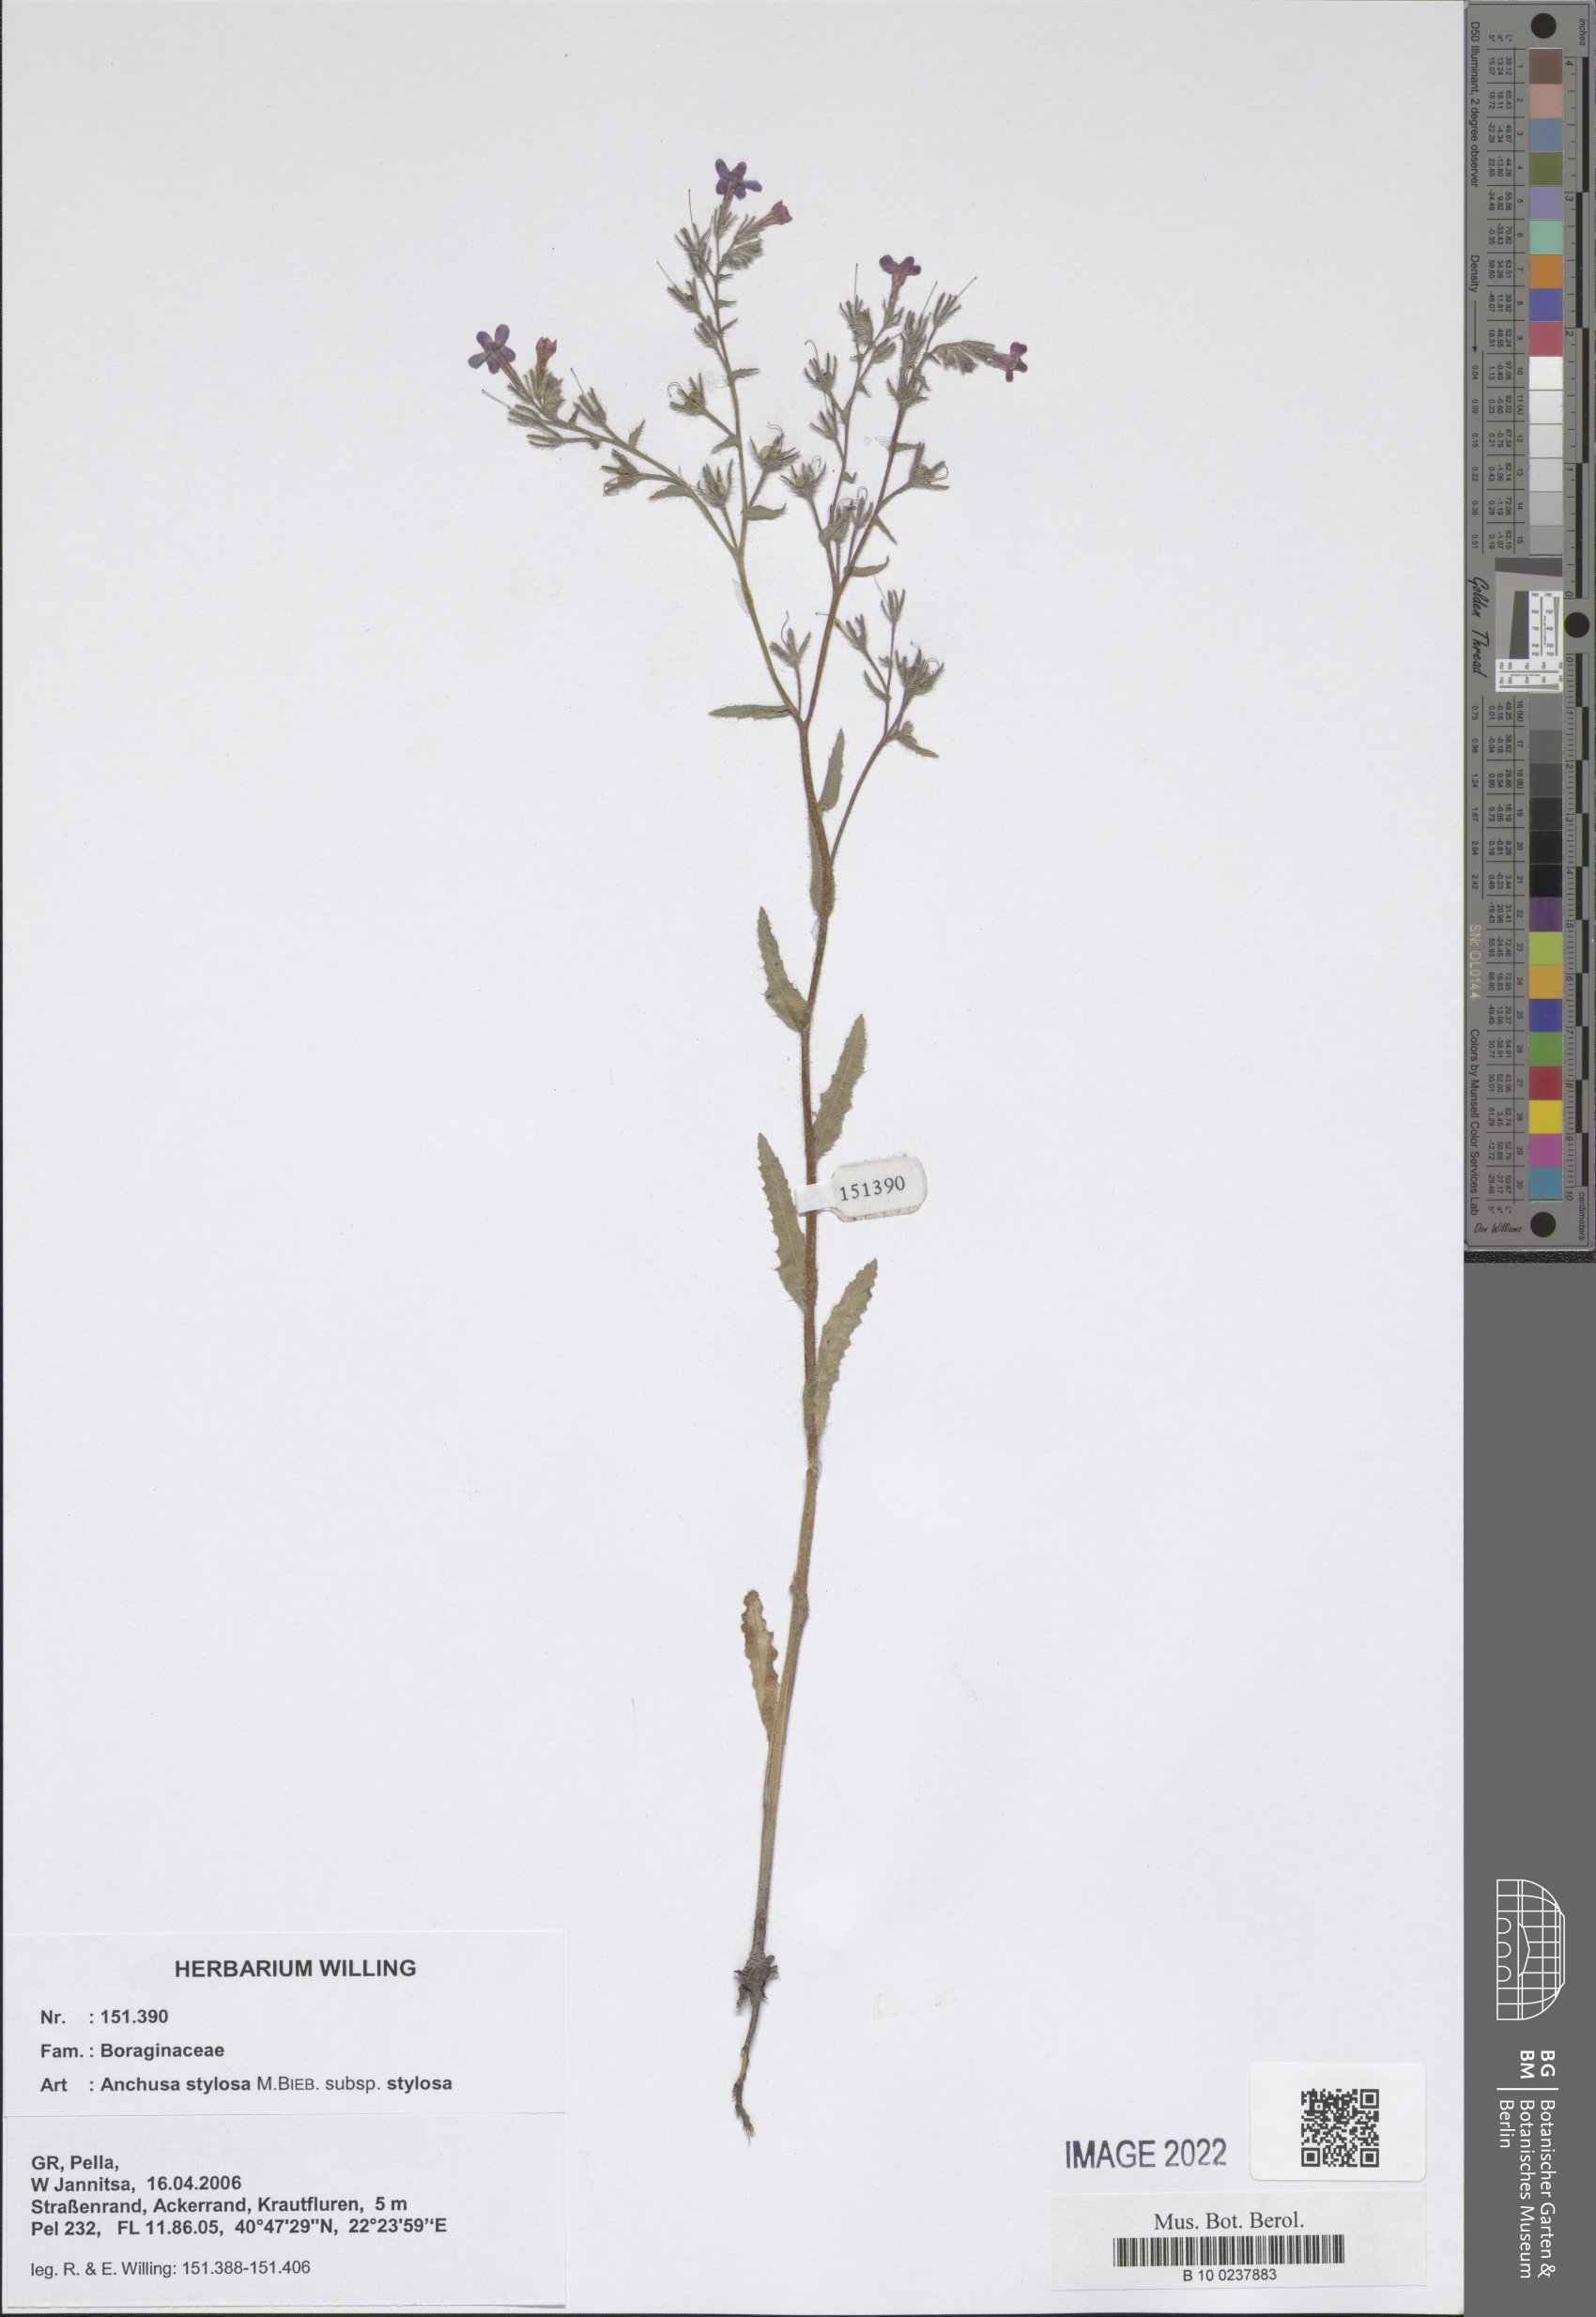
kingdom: Plantae
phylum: Tracheophyta
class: Magnoliopsida
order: Boraginales
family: Boraginaceae
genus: Anchusa
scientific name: Anchusa stylosa
